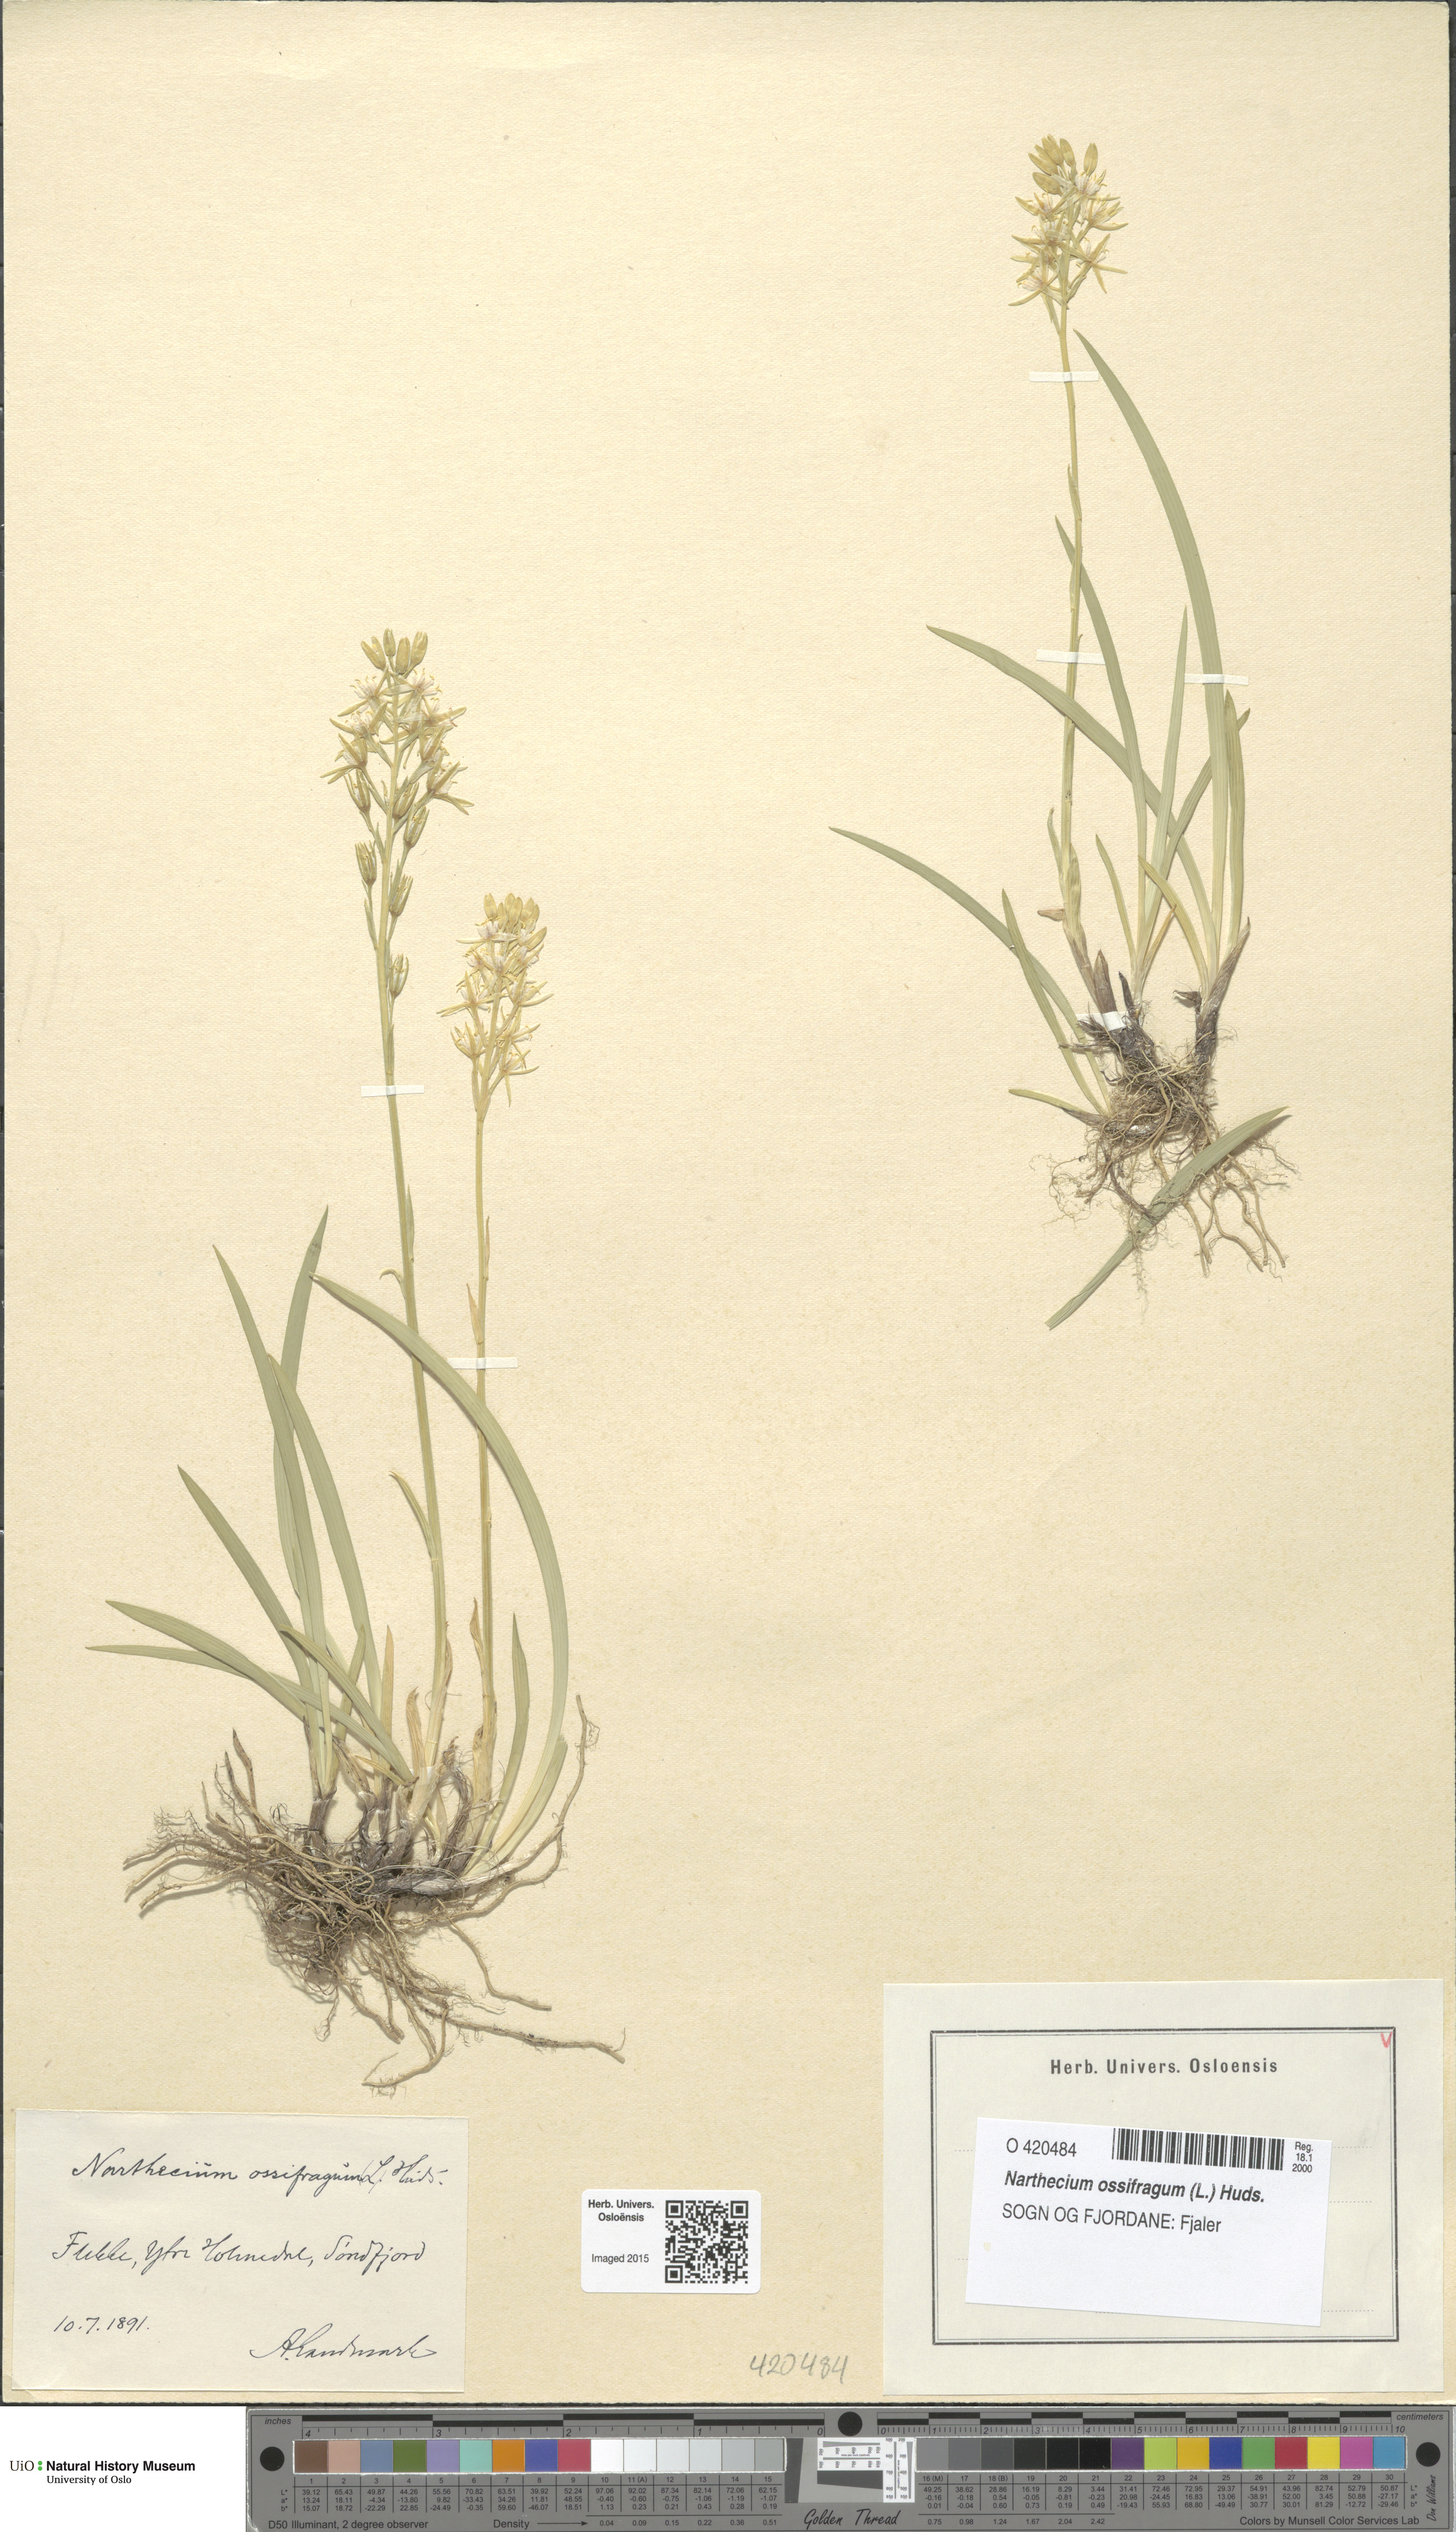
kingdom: Plantae
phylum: Tracheophyta
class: Liliopsida
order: Dioscoreales
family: Nartheciaceae
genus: Narthecium
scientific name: Narthecium ossifragum
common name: Bog asphodel
